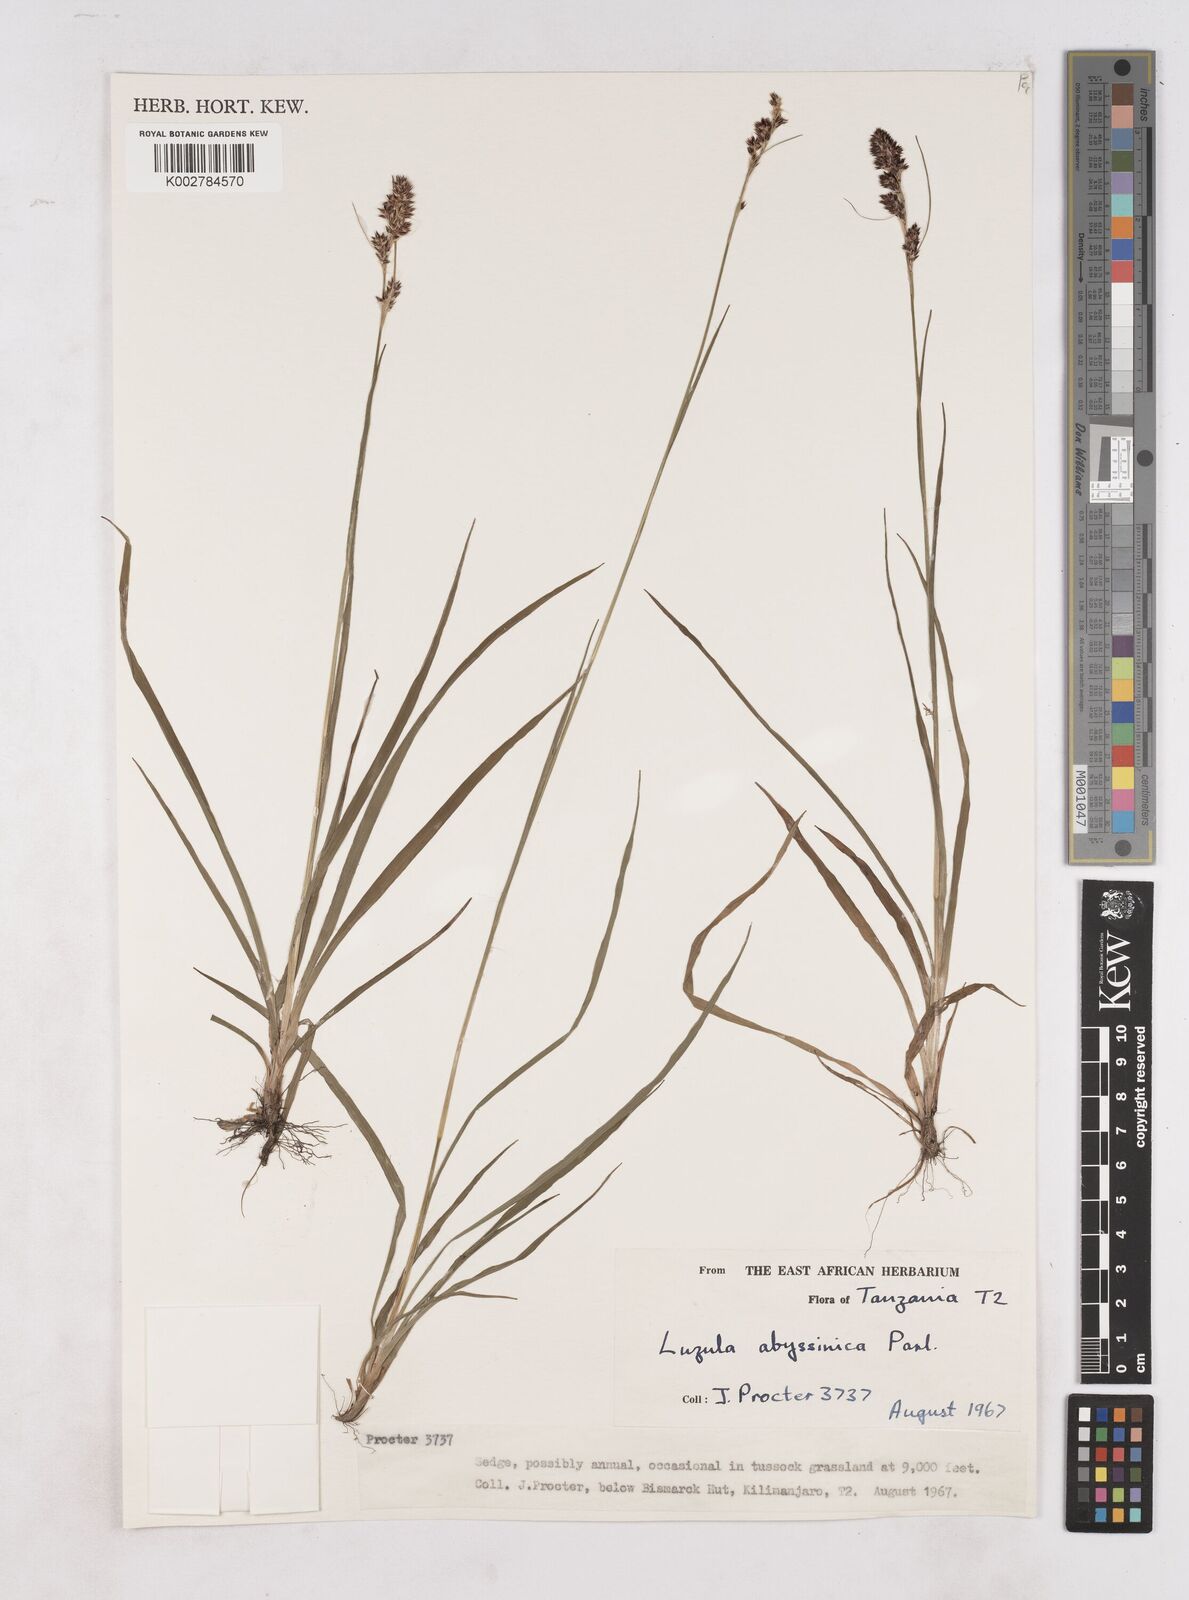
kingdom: Plantae
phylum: Tracheophyta
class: Liliopsida
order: Poales
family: Juncaceae
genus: Luzula
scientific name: Luzula abyssinica
